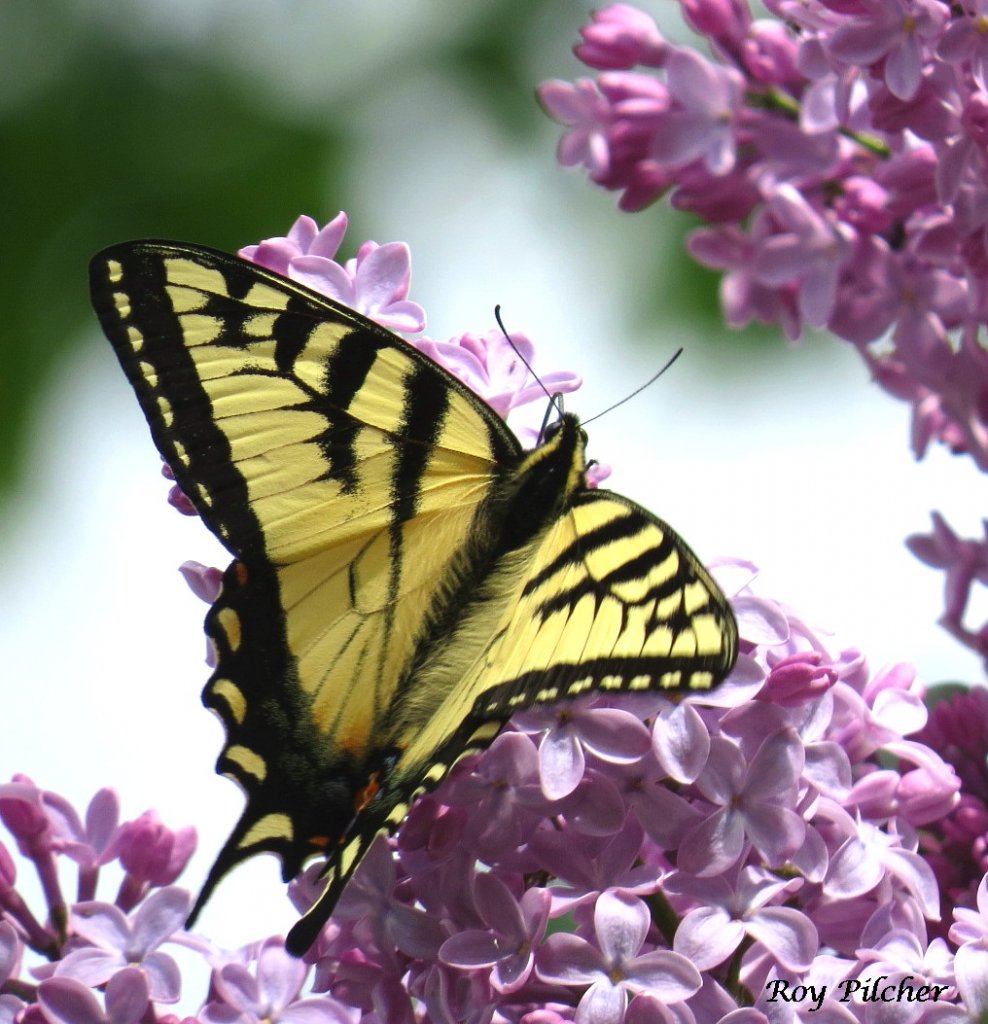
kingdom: Animalia
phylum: Arthropoda
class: Insecta
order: Lepidoptera
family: Papilionidae
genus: Pterourus
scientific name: Pterourus canadensis
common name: Canadian Tiger Swallowtail
